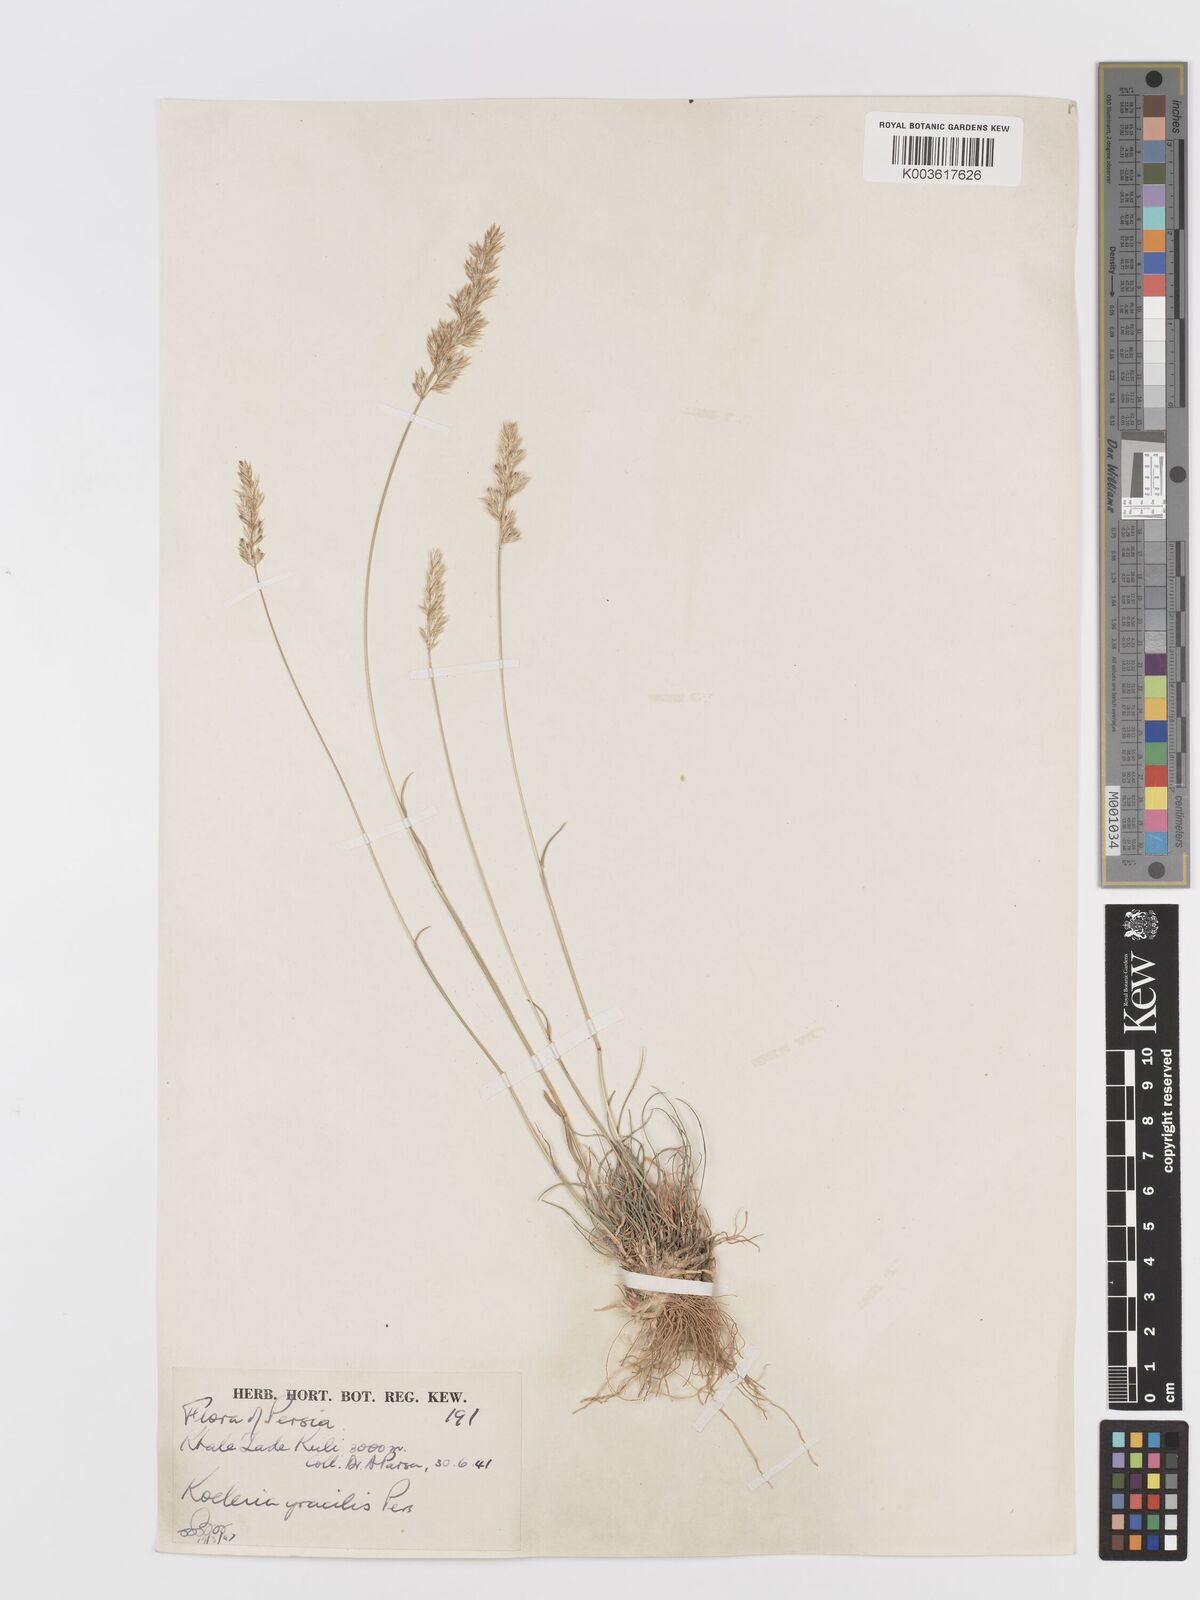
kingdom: Plantae
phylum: Tracheophyta
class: Liliopsida
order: Poales
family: Poaceae
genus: Koeleria
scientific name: Koeleria macrantha
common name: Crested hair-grass
